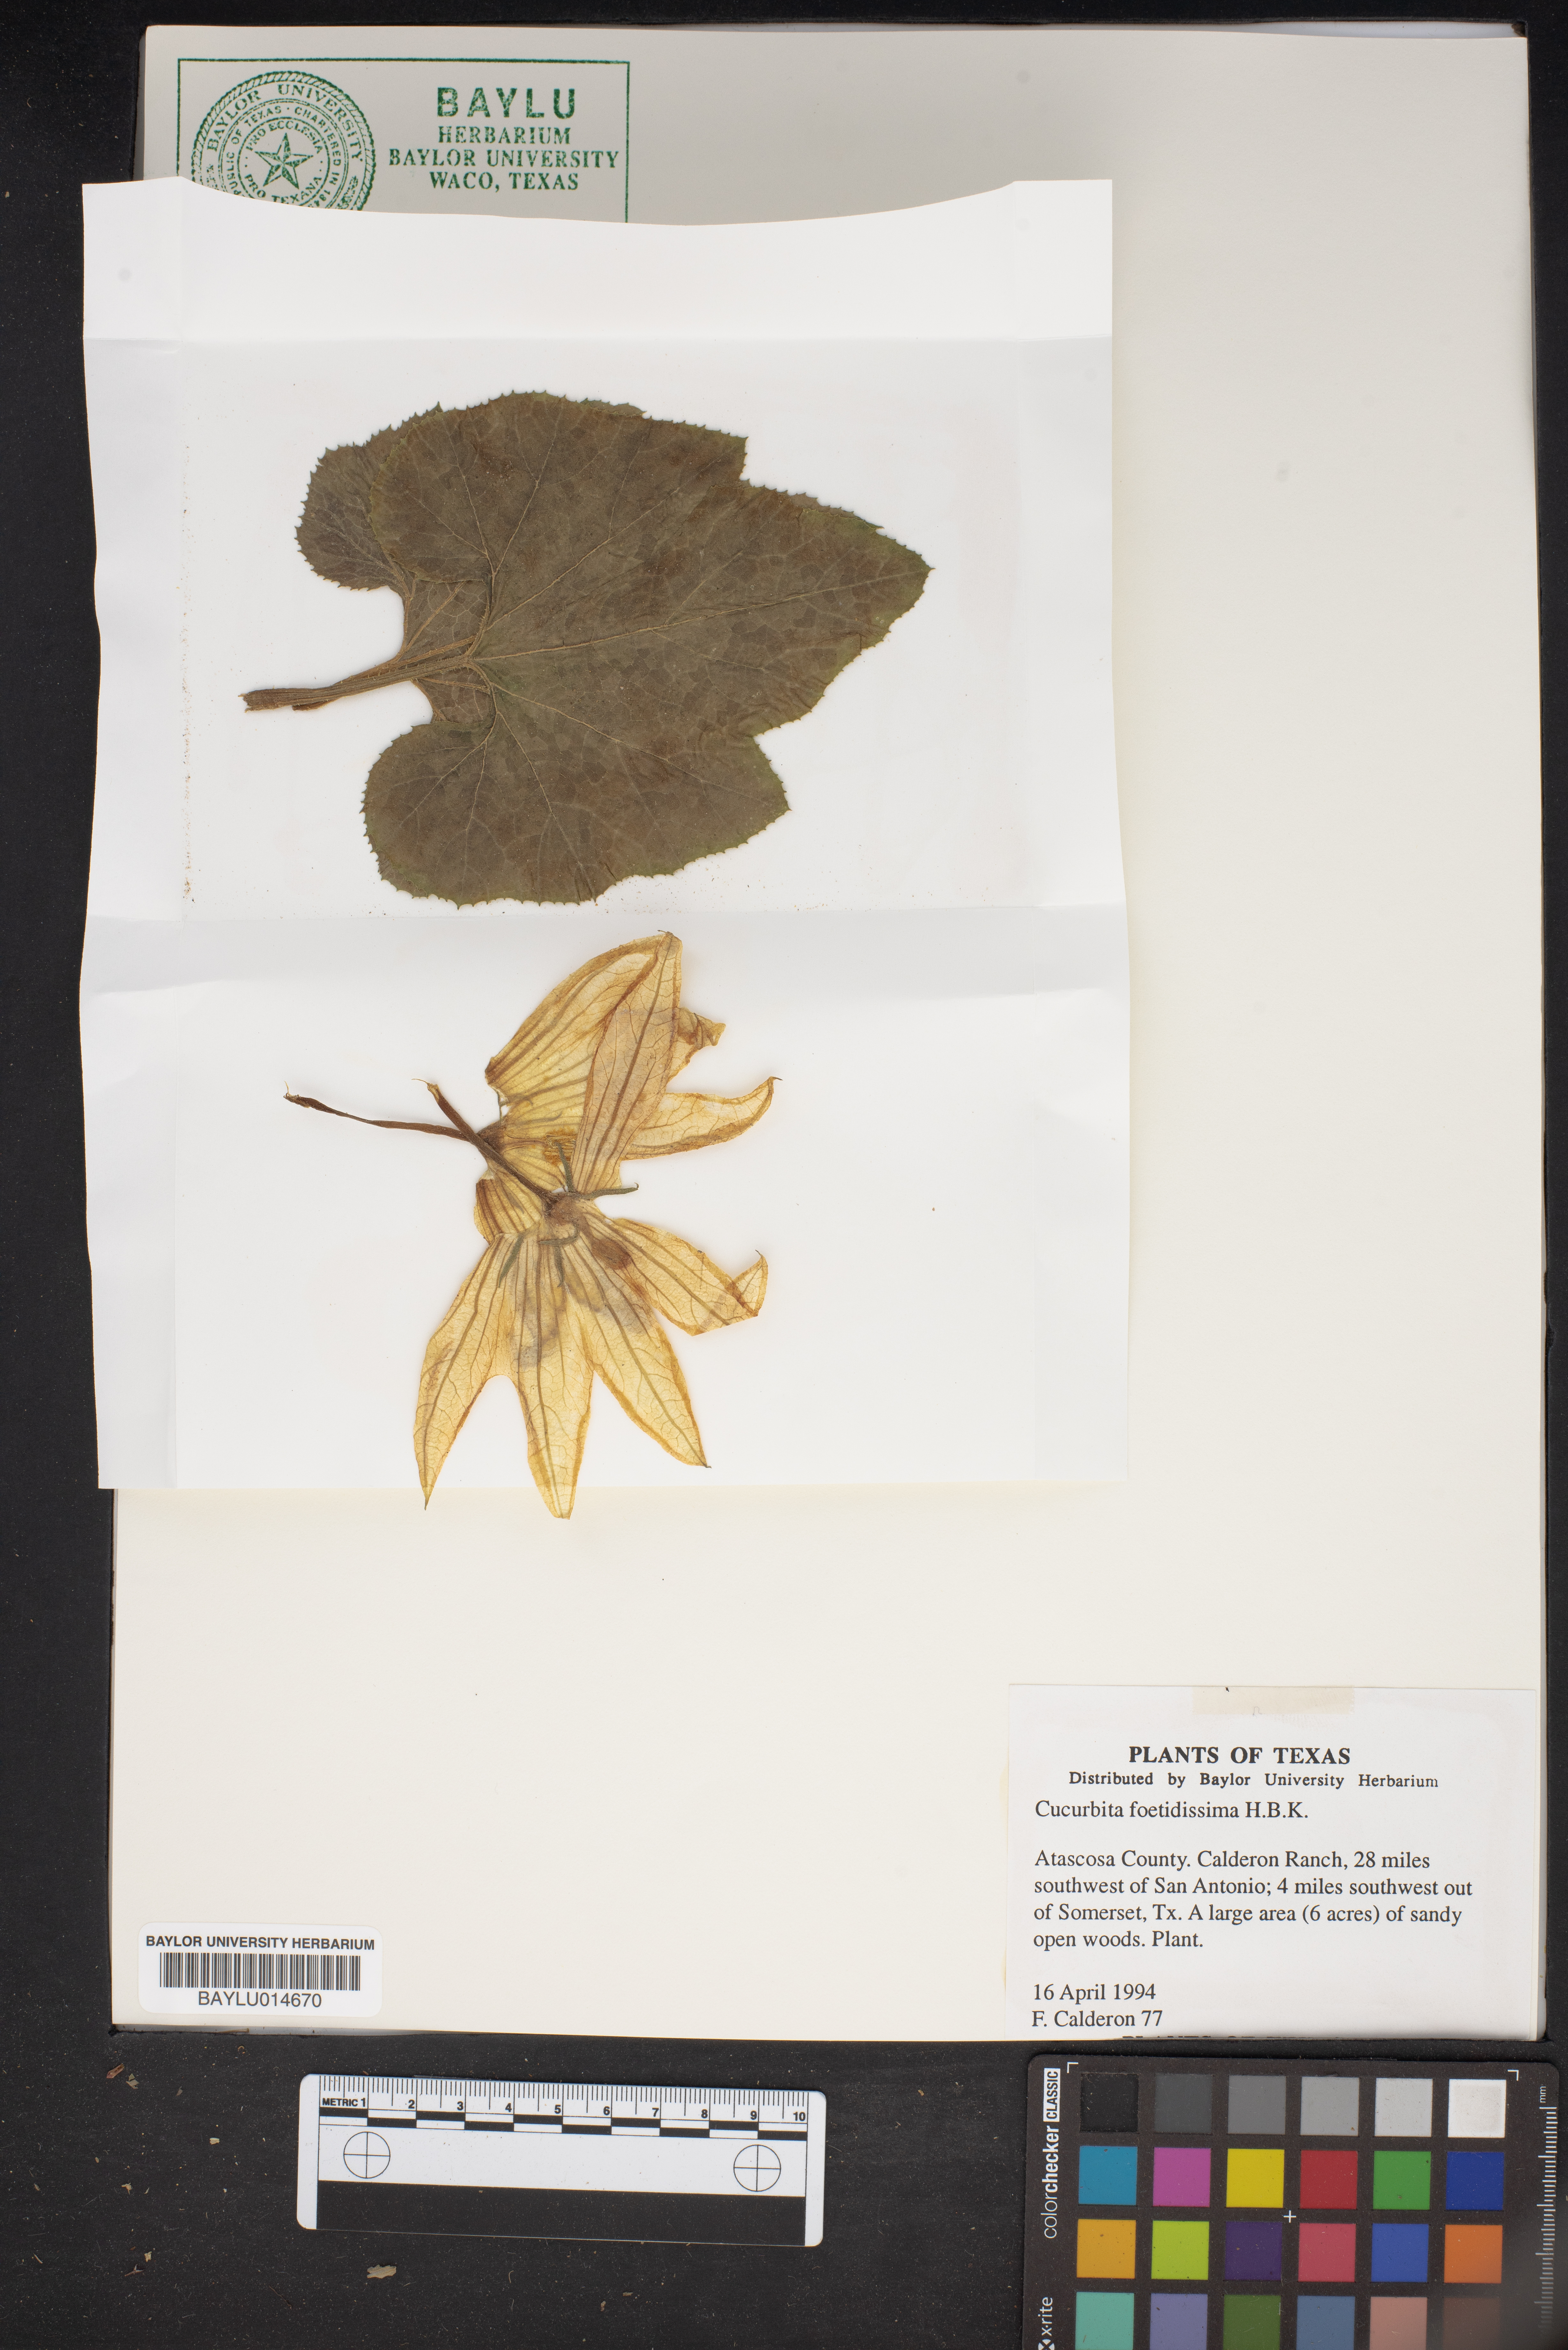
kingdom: Plantae
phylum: Tracheophyta
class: Magnoliopsida
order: Cucurbitales
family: Cucurbitaceae
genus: Cucurbita
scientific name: Cucurbita foetidissima
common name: Buffalo gourd
